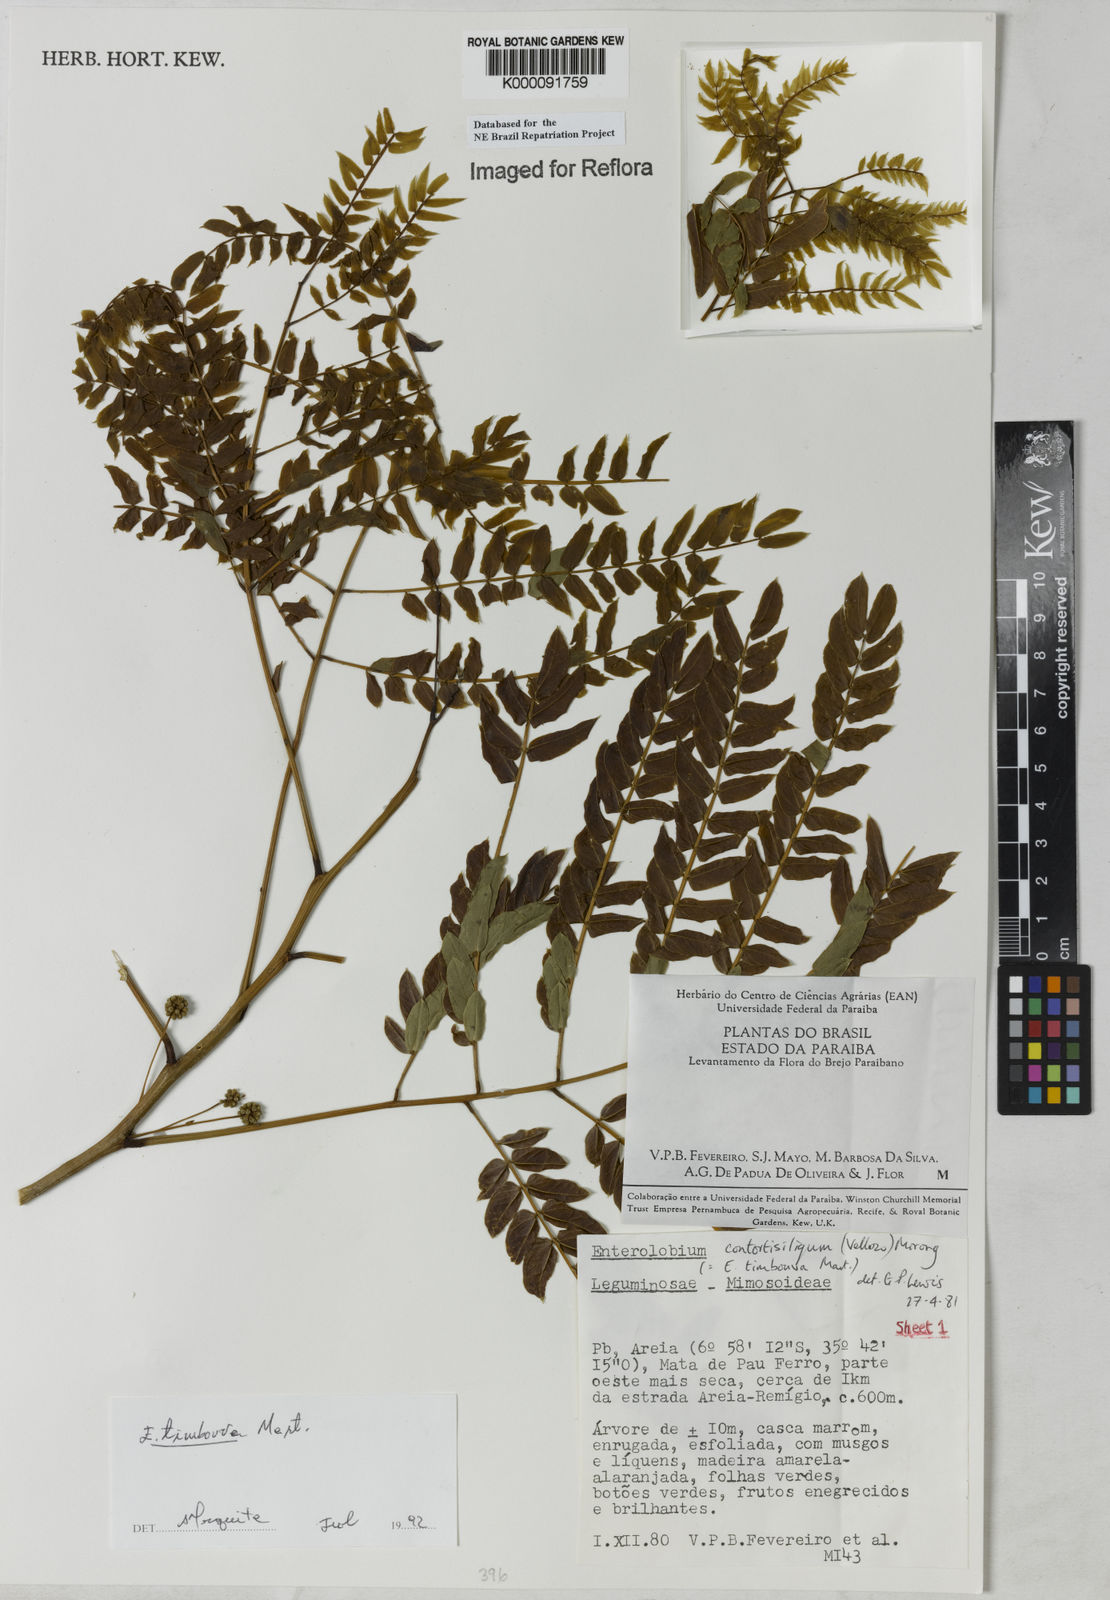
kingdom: Plantae
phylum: Tracheophyta
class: Magnoliopsida
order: Fabales
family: Fabaceae
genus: Enterolobium
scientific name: Enterolobium timbouva
